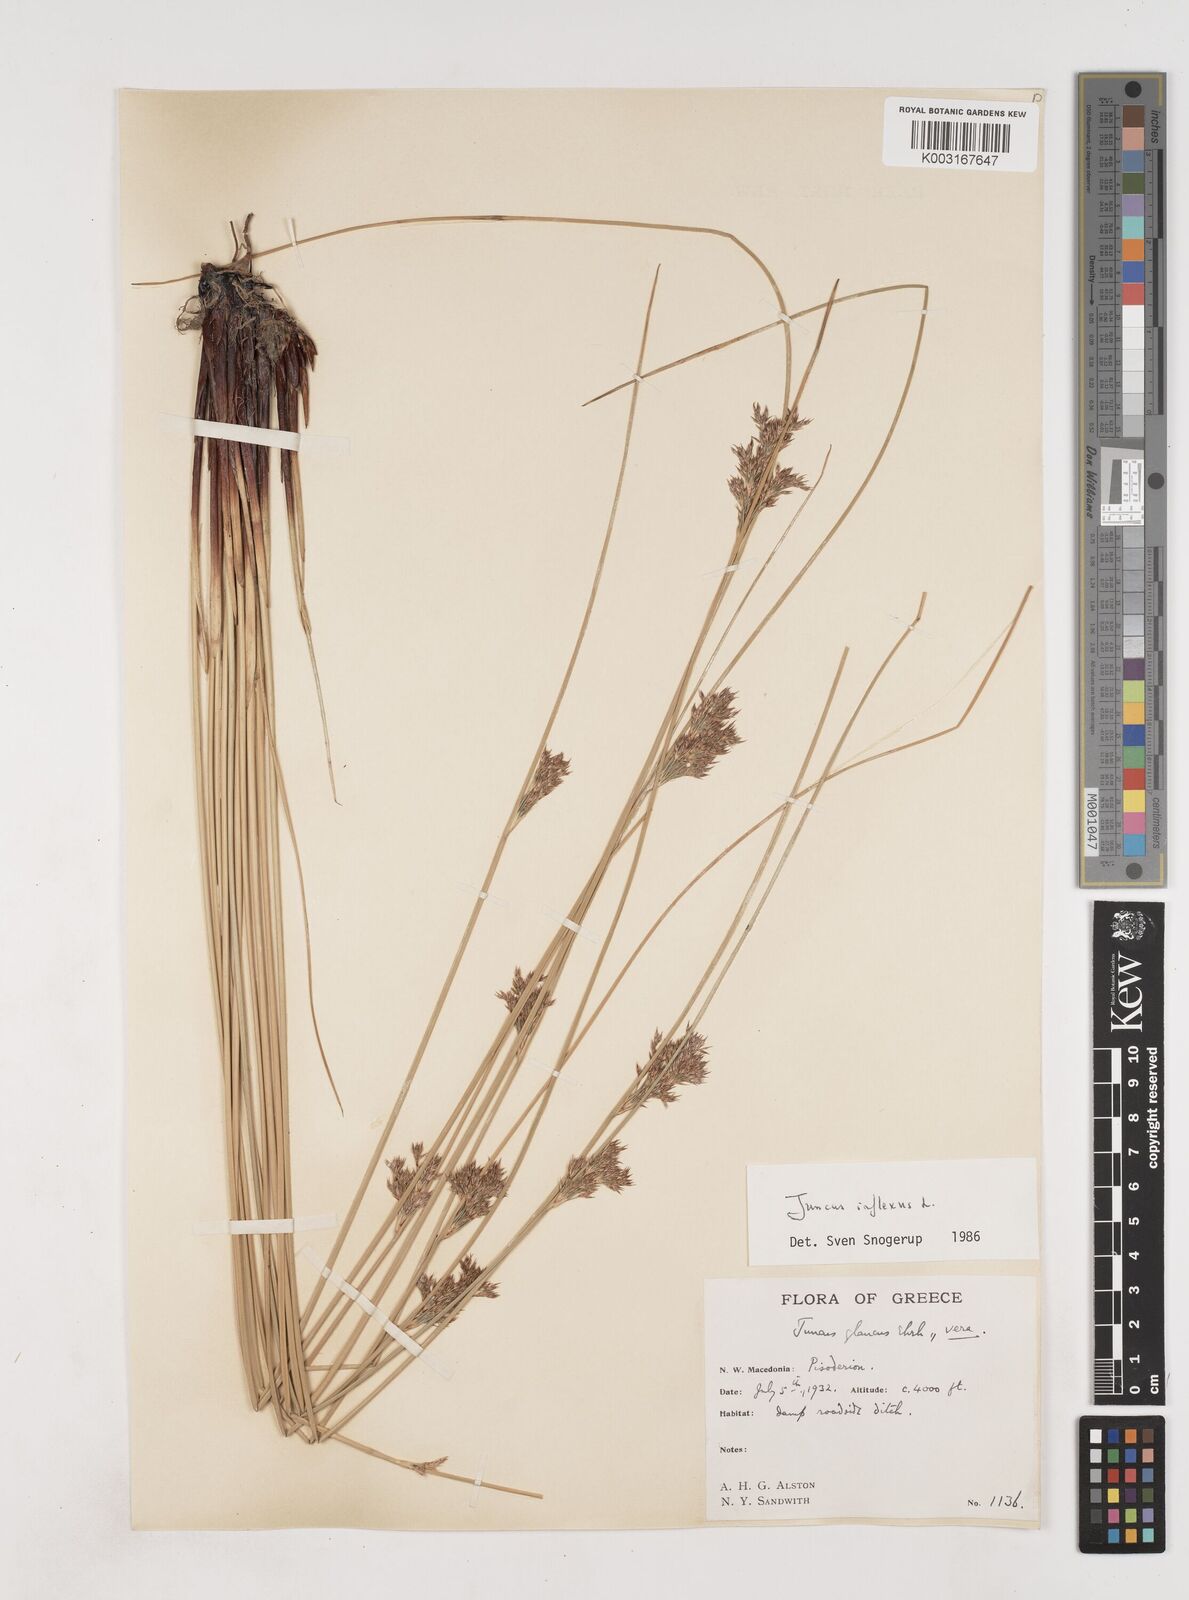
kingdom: Plantae
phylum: Tracheophyta
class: Liliopsida
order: Poales
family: Juncaceae
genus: Juncus
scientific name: Juncus inflexus
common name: Hard rush
